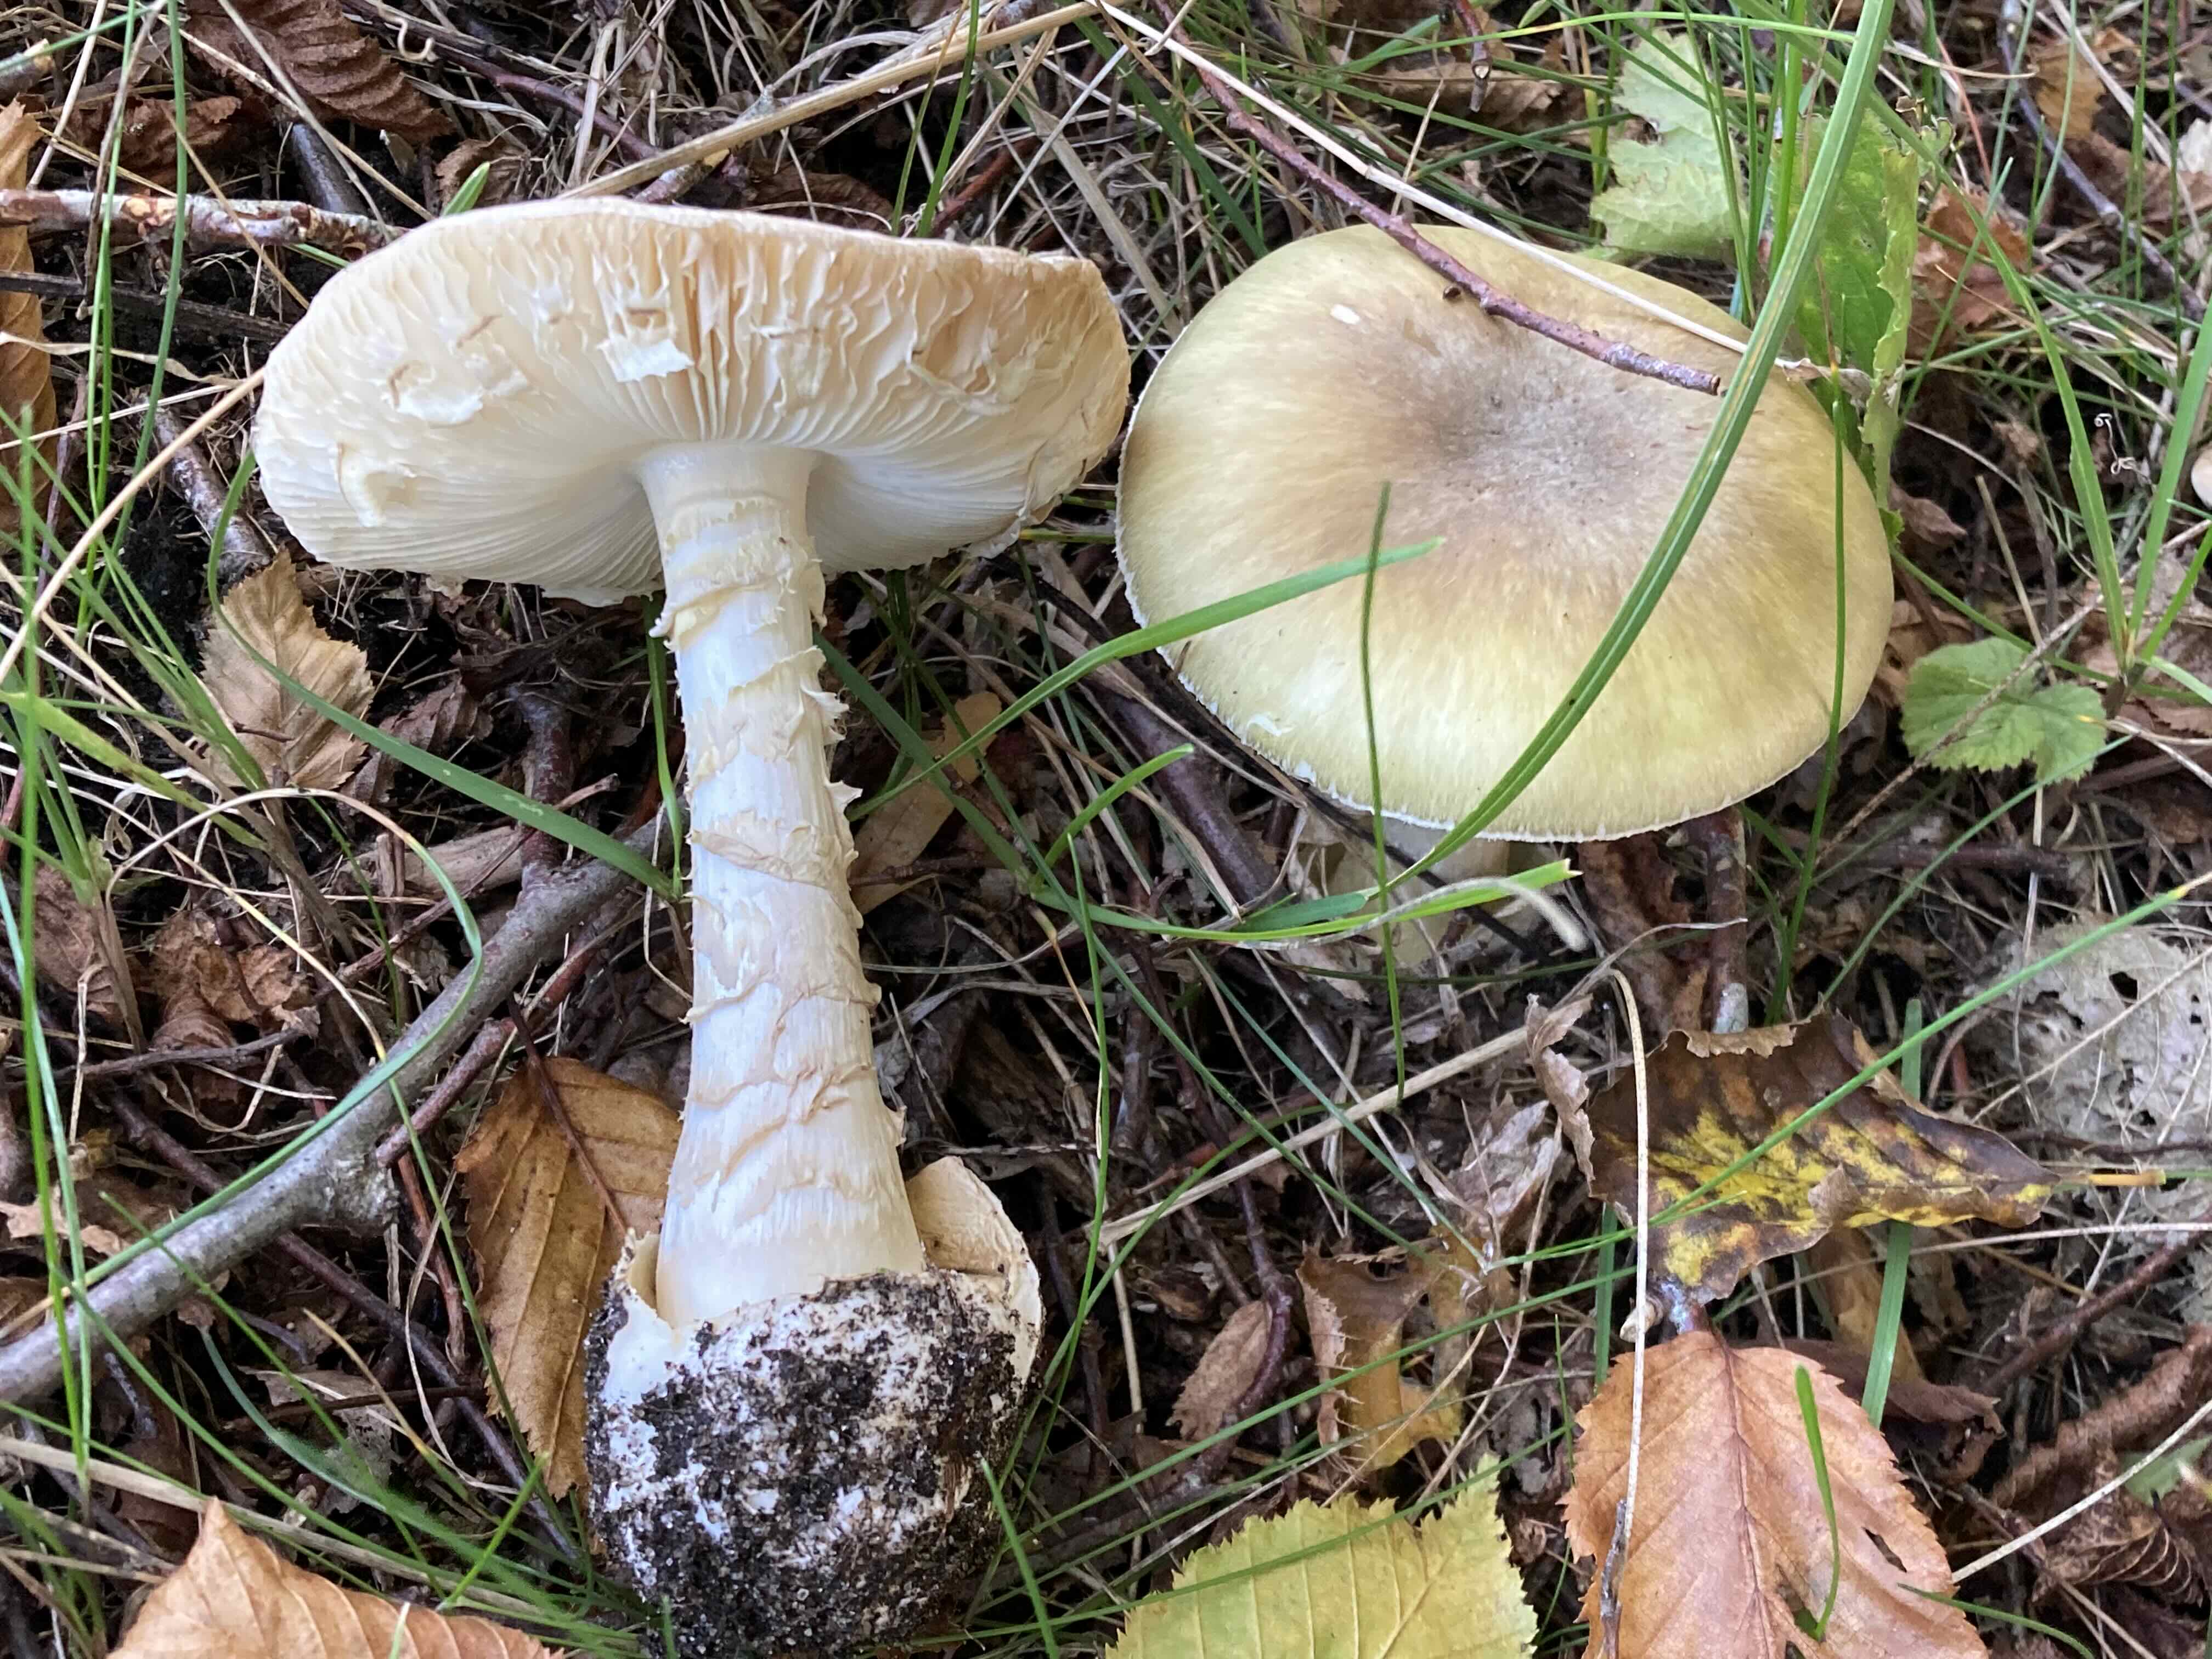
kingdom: Fungi
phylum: Basidiomycota
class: Agaricomycetes
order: Agaricales
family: Amanitaceae
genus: Amanita
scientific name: Amanita phalloides
